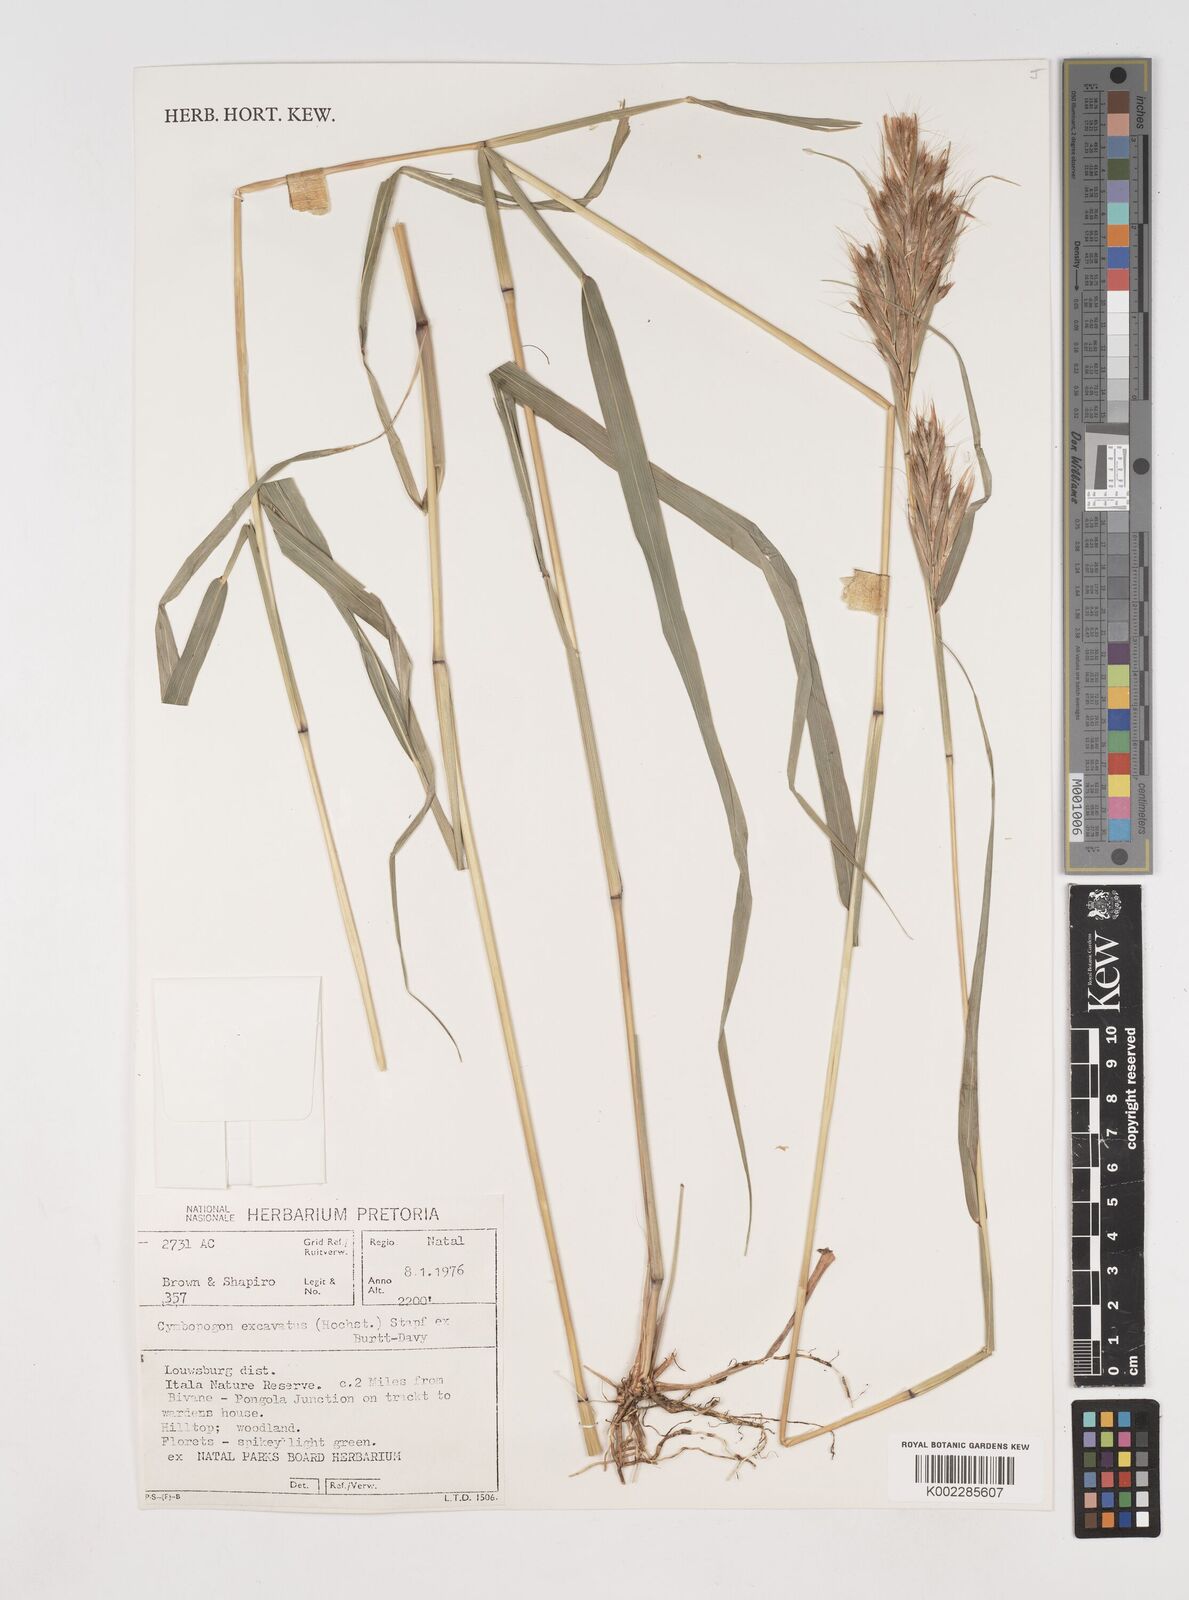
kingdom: Plantae
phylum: Tracheophyta
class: Liliopsida
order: Poales
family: Poaceae
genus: Cymbopogon
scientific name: Cymbopogon caesius
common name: Kachi grass
